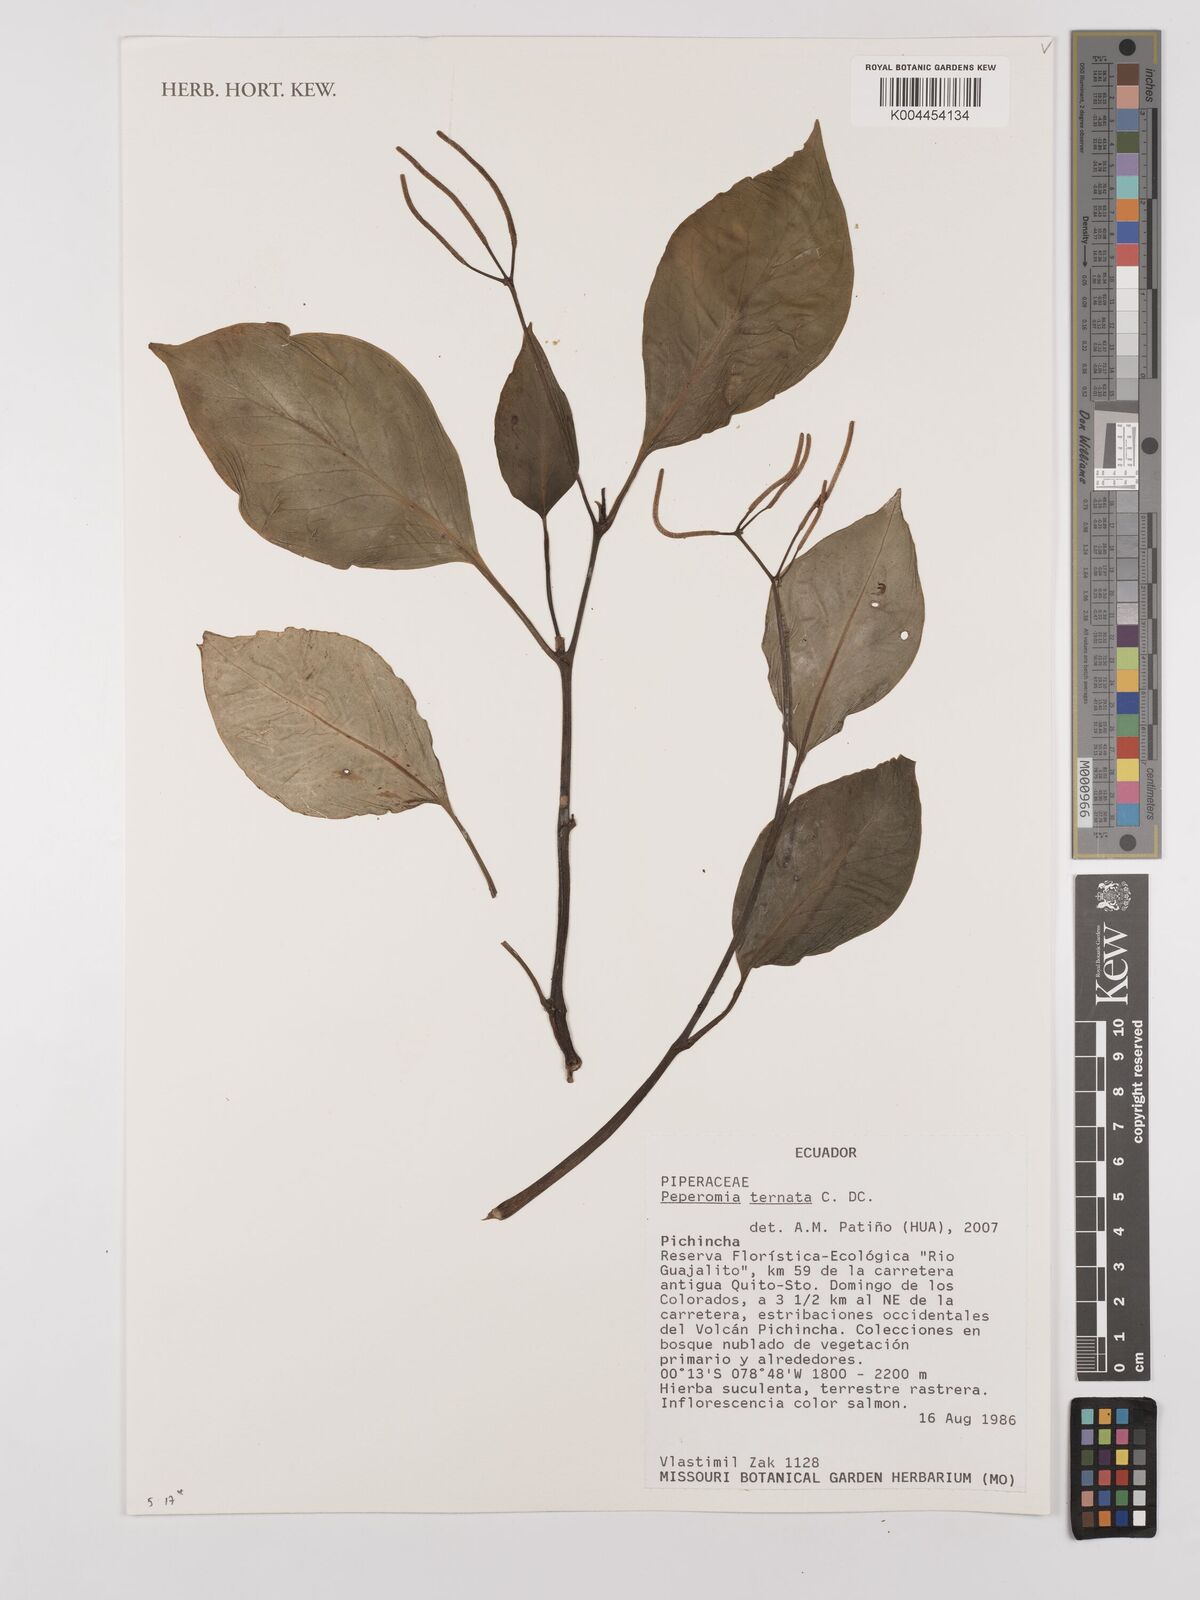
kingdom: Plantae
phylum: Tracheophyta
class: Magnoliopsida
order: Piperales
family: Piperaceae
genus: Peperomia
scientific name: Peperomia ternata
